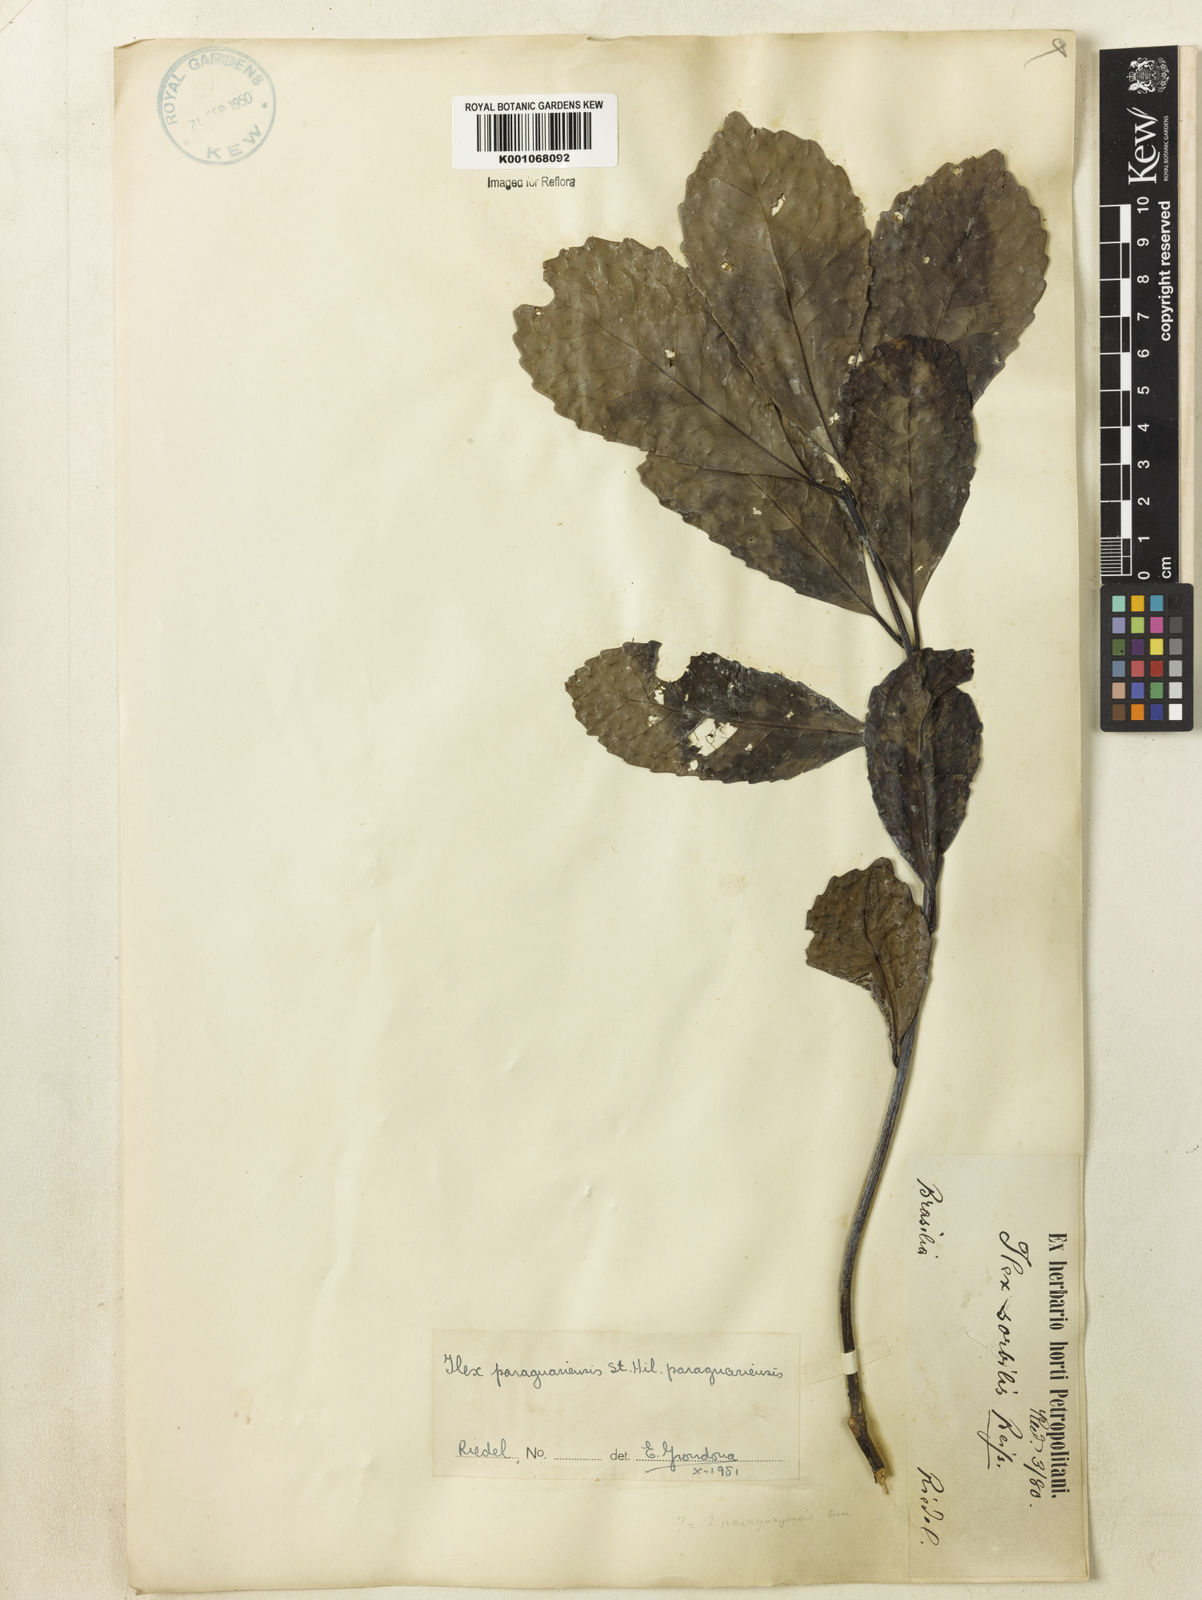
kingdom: Plantae
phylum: Tracheophyta
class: Magnoliopsida
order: Aquifoliales
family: Aquifoliaceae
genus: Ilex
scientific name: Ilex paraguariensis
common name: Paraguay tea
